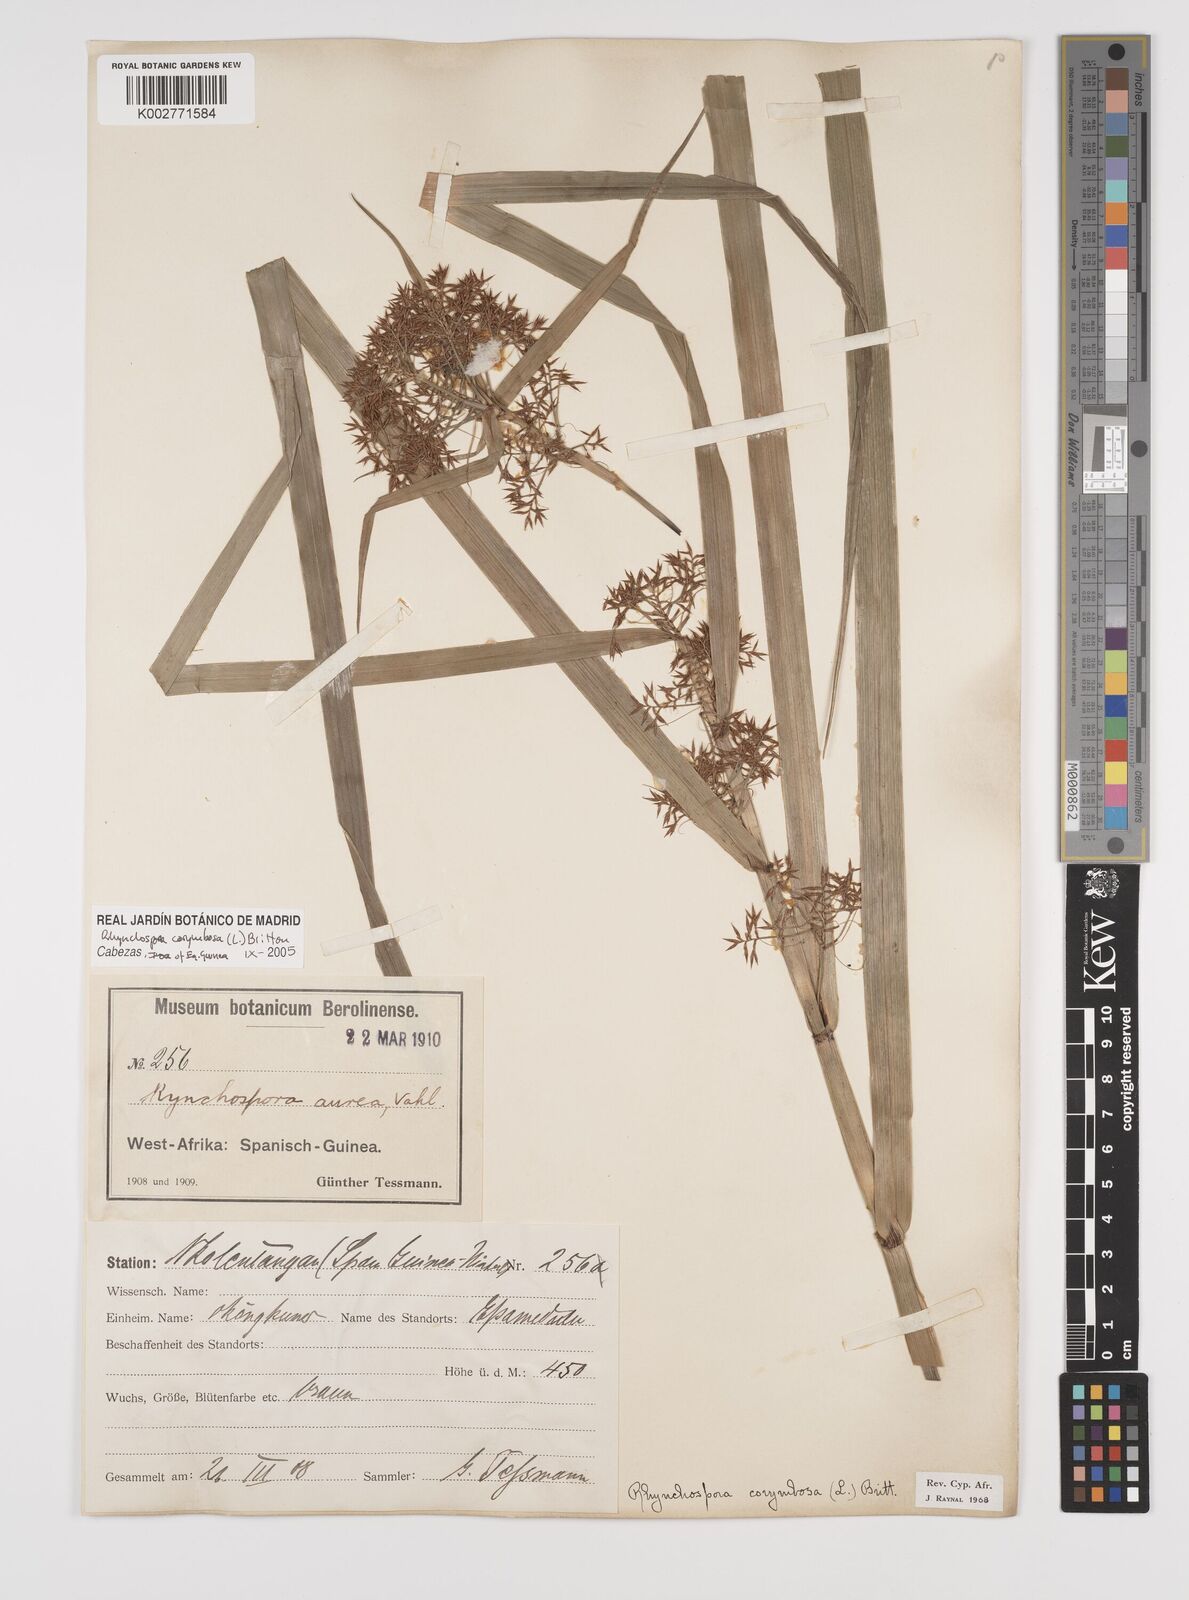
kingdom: Plantae
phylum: Tracheophyta
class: Liliopsida
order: Poales
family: Cyperaceae
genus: Rhynchospora
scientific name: Rhynchospora corymbosa
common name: Golden beak sedge
